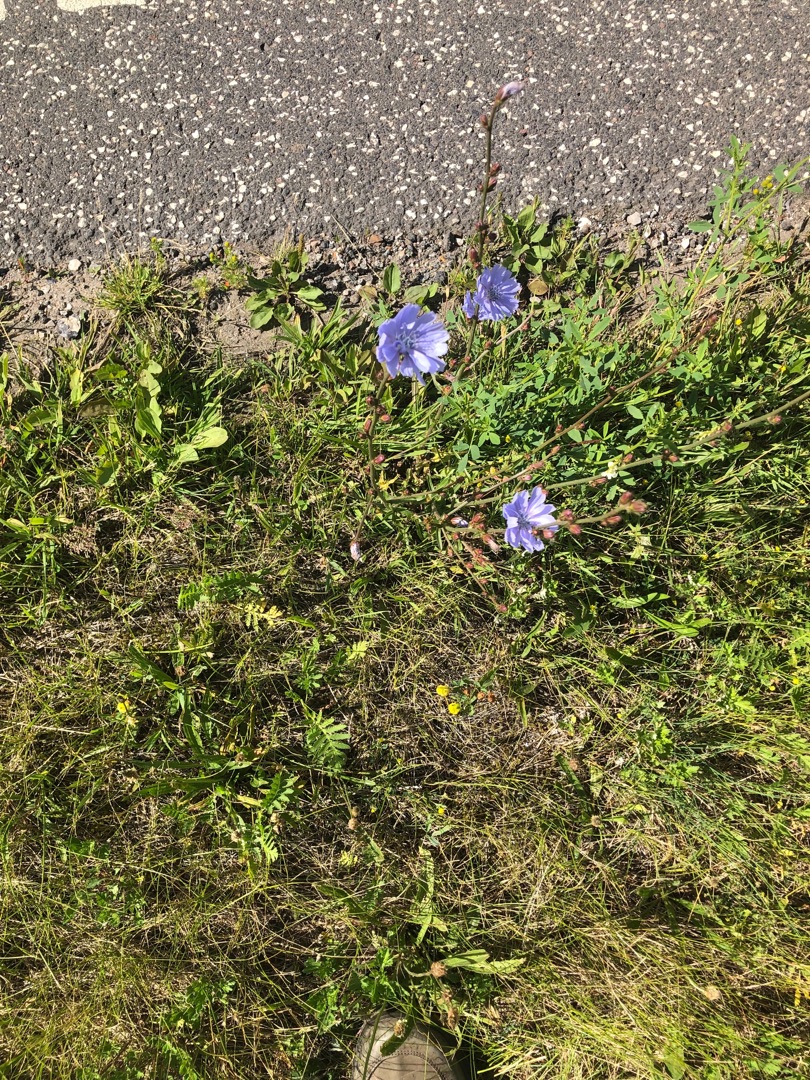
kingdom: Plantae
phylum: Tracheophyta
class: Magnoliopsida
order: Asterales
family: Asteraceae
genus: Cichorium
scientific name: Cichorium intybus
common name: Cikorie
